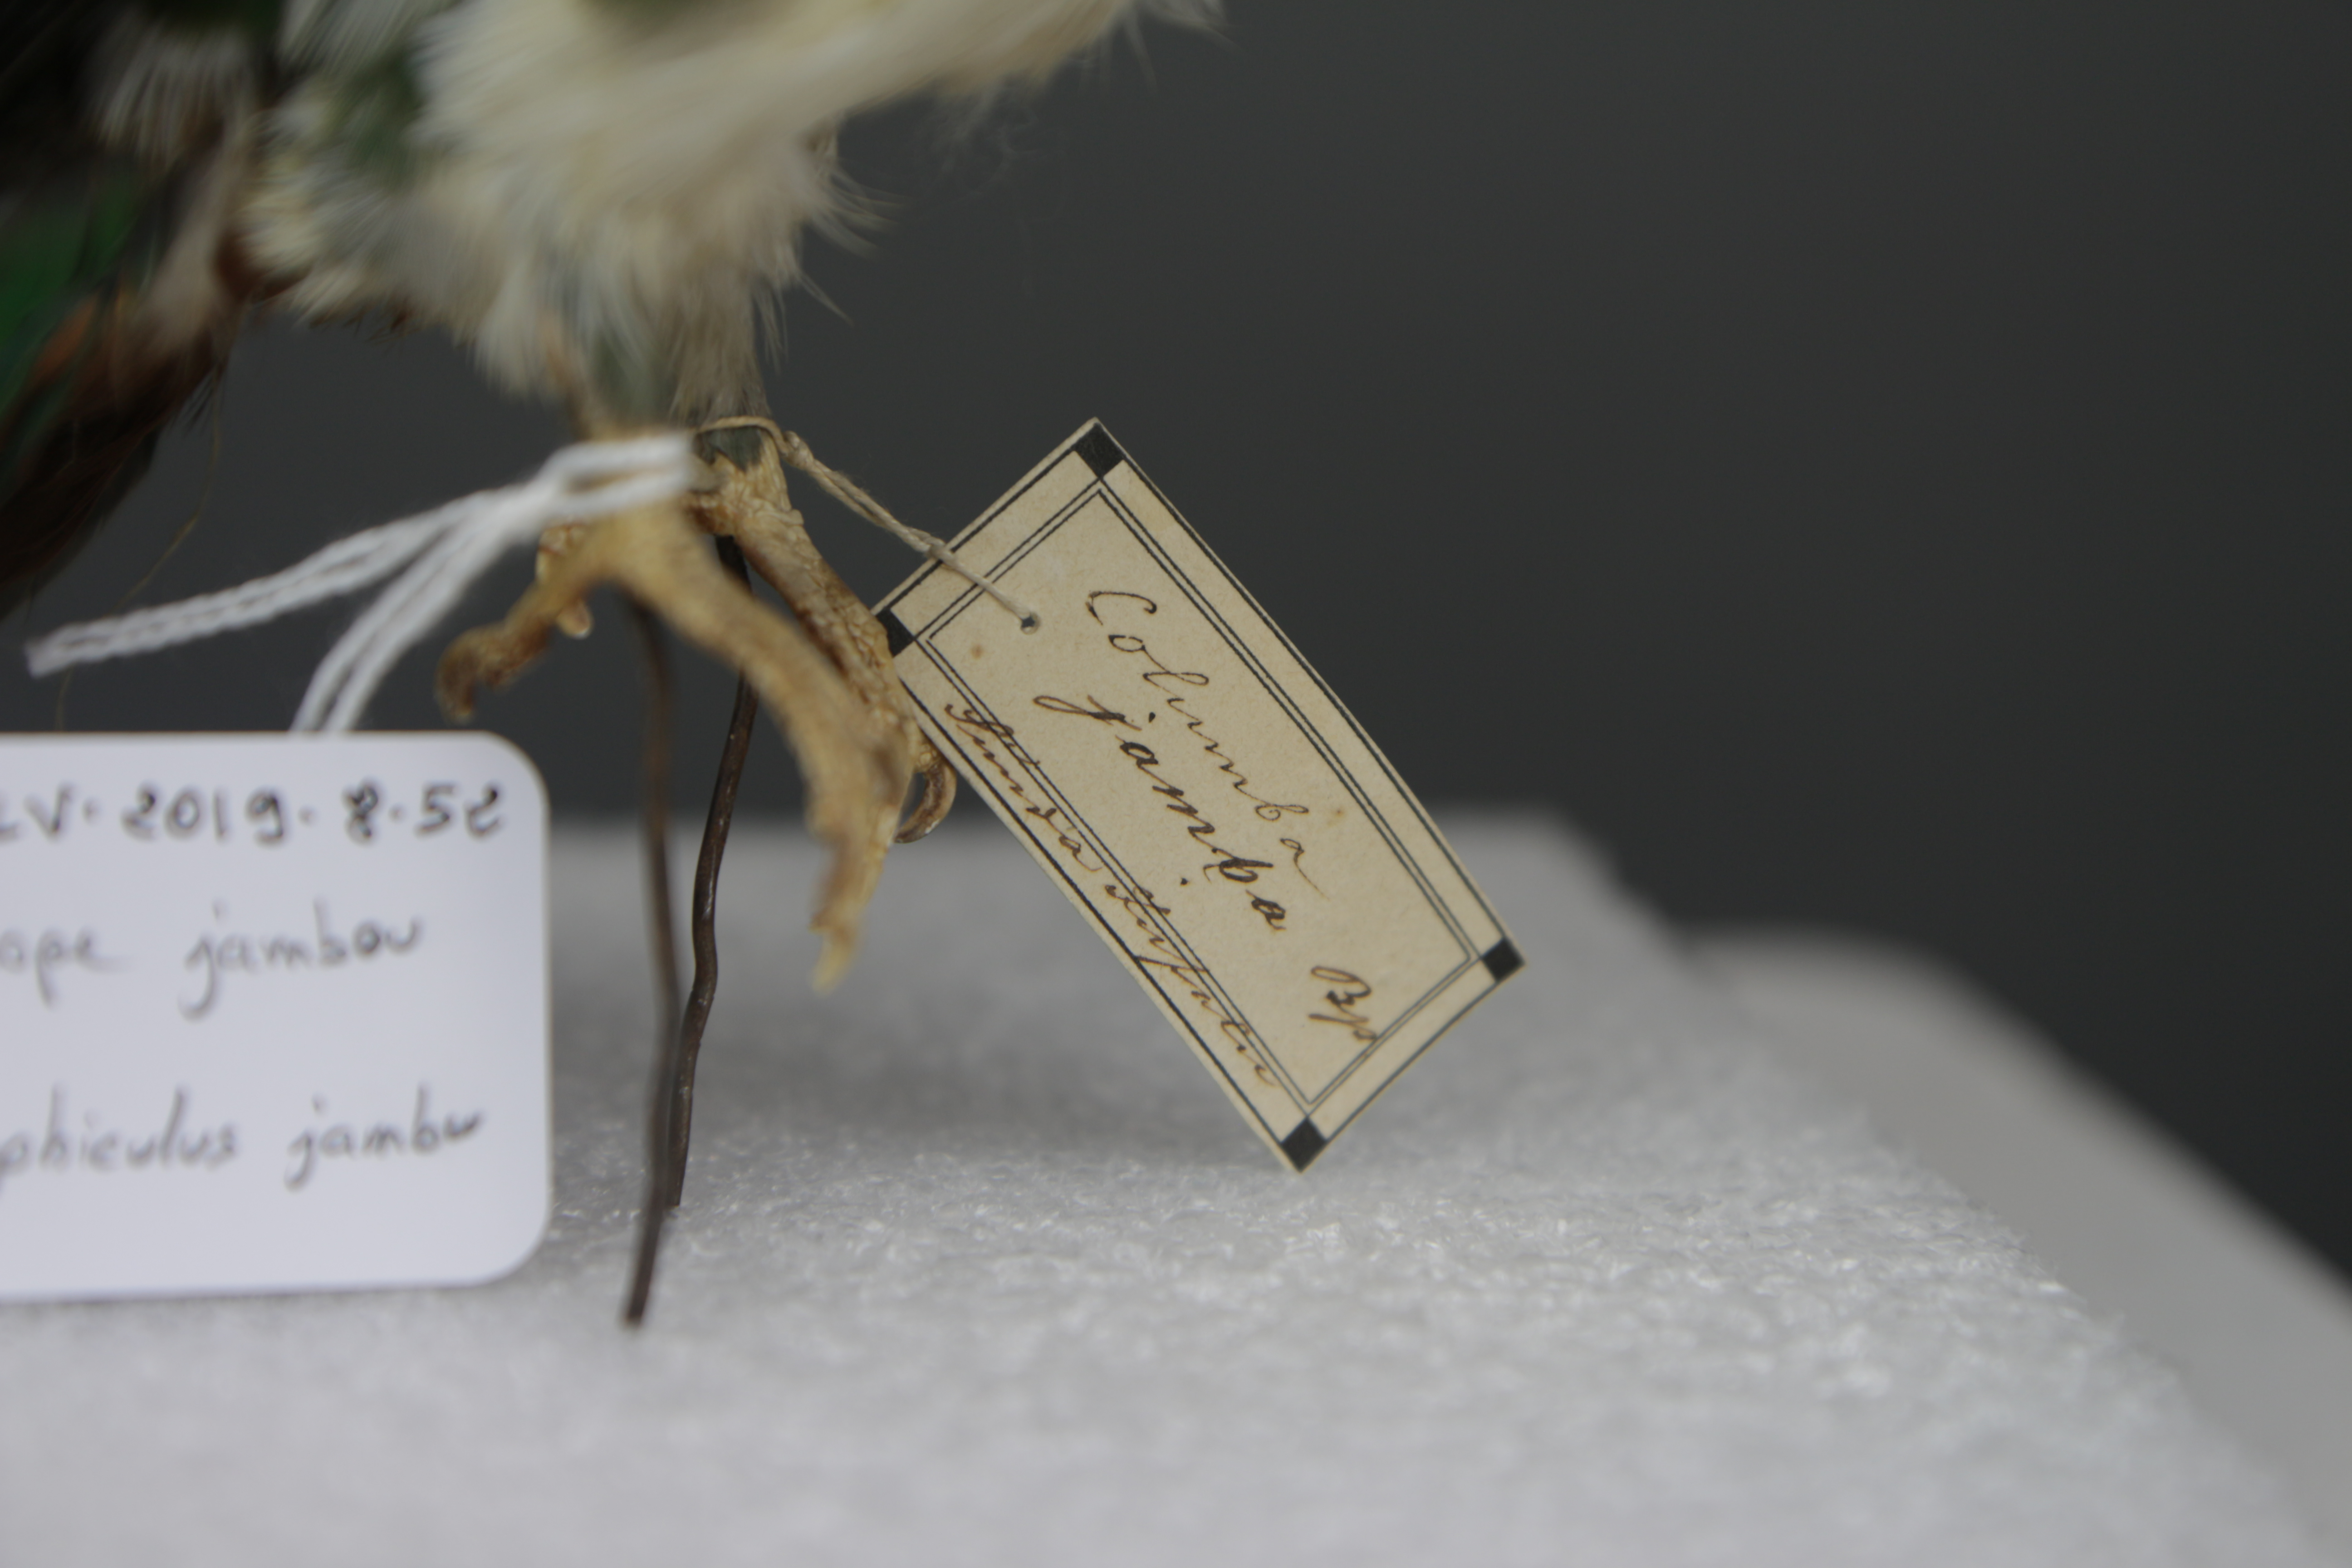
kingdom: Animalia
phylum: Chordata
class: Aves
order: Columbiformes
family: Columbidae
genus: Ptilinopus
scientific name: Ptilinopus jambu
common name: Jambu fruit dove
